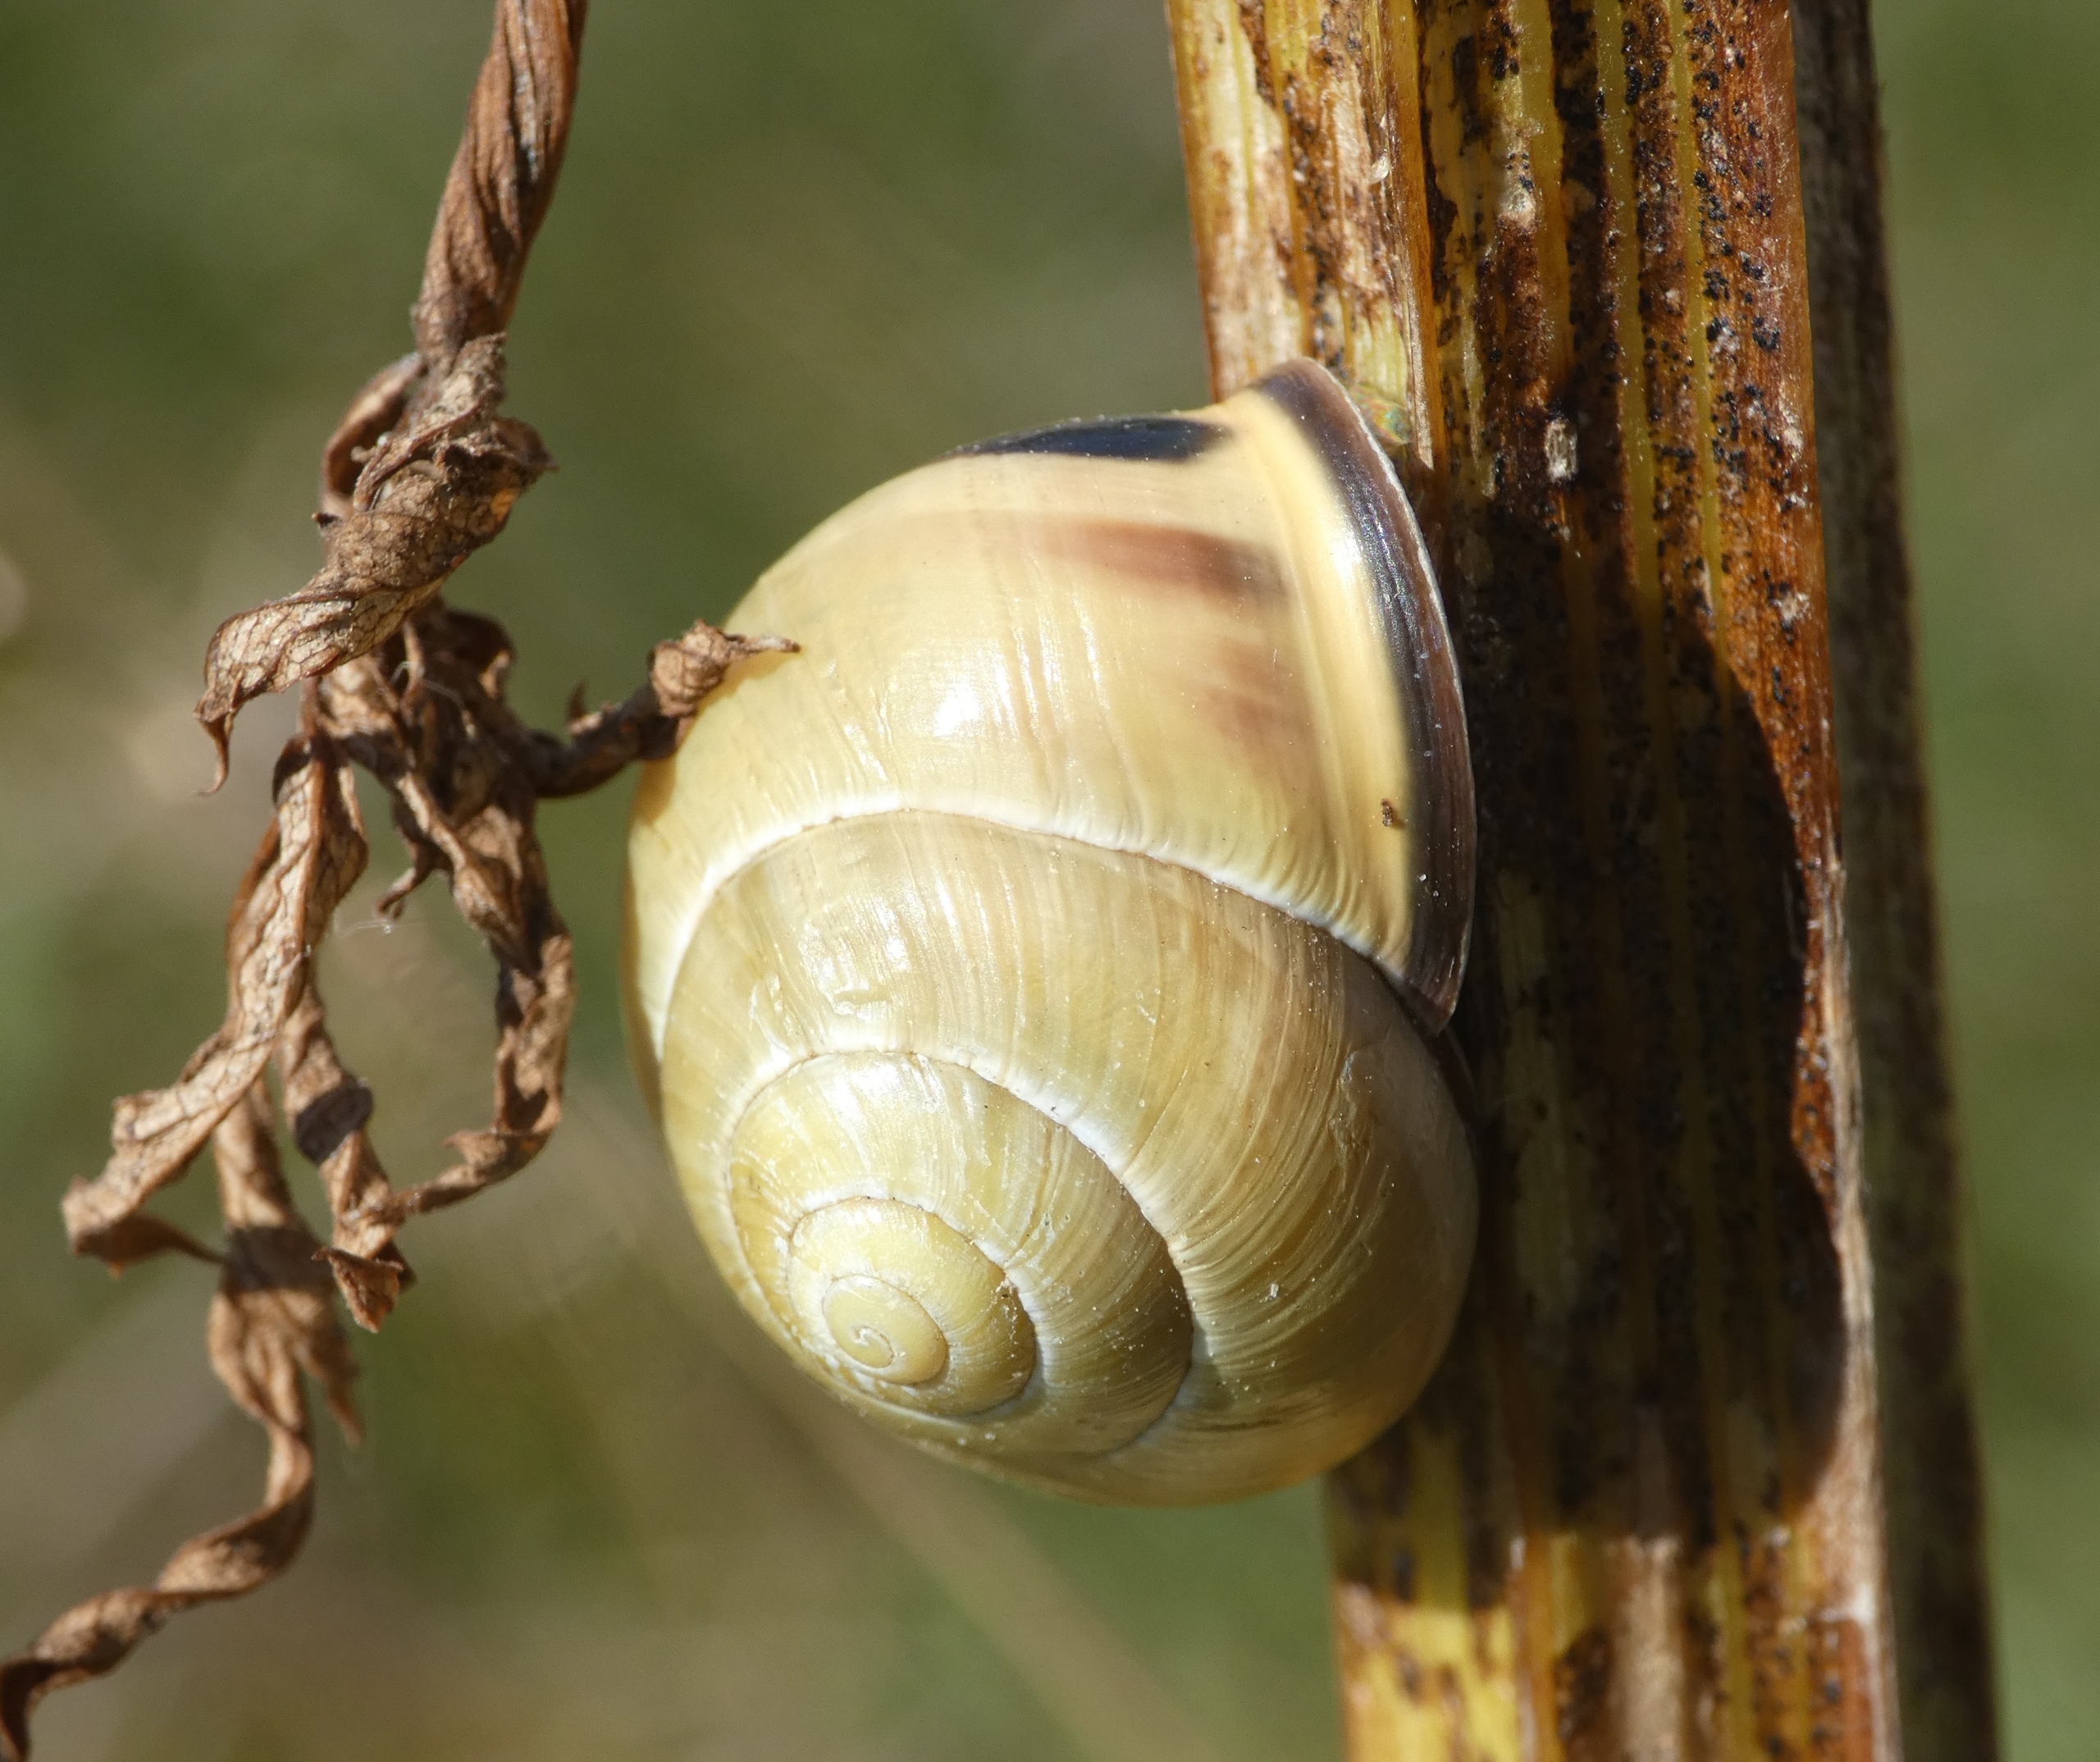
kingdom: Animalia
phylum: Mollusca
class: Gastropoda
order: Stylommatophora
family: Helicidae
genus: Cepaea
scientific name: Cepaea nemoralis
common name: Lundsnegl
